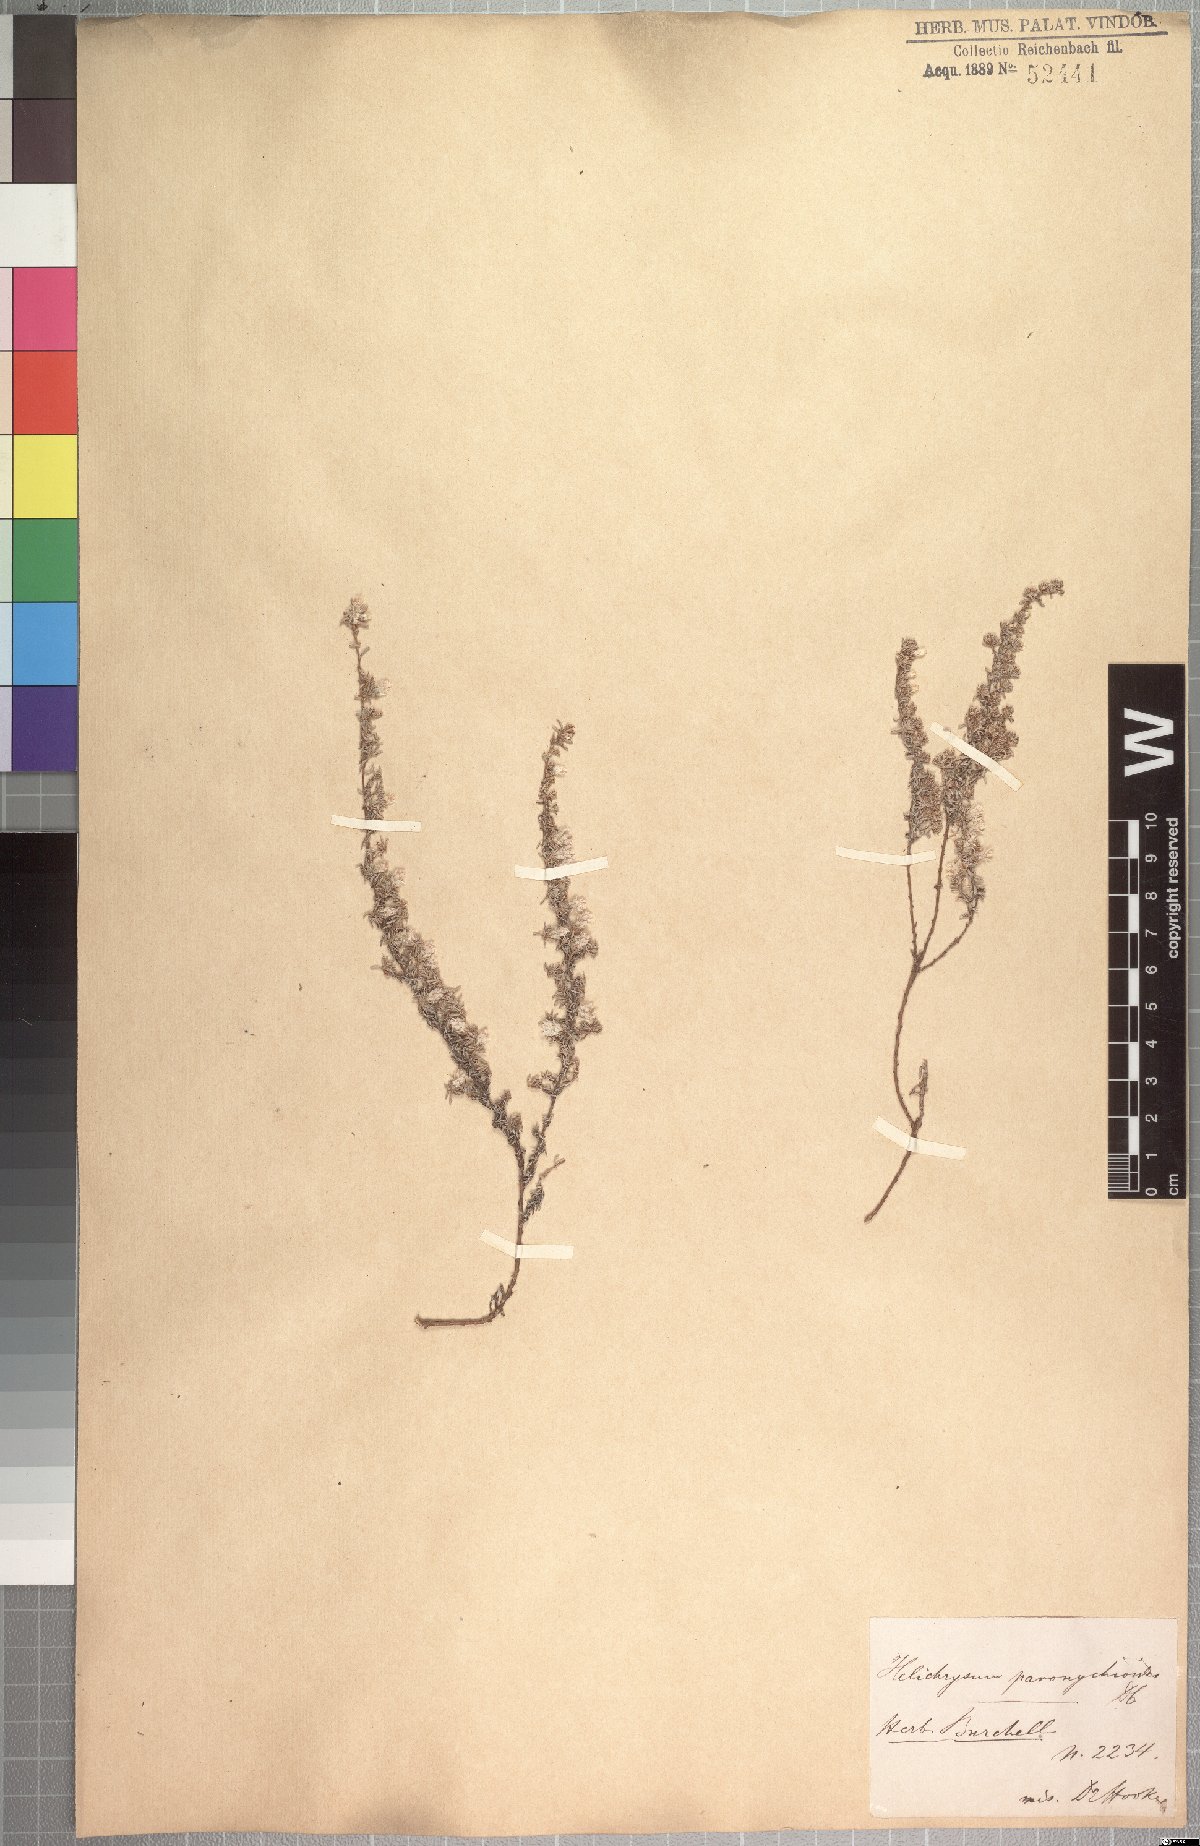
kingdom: Plantae
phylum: Tracheophyta
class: Magnoliopsida
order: Asterales
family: Asteraceae
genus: Helichrysum
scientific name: Helichrysum paronychioides
